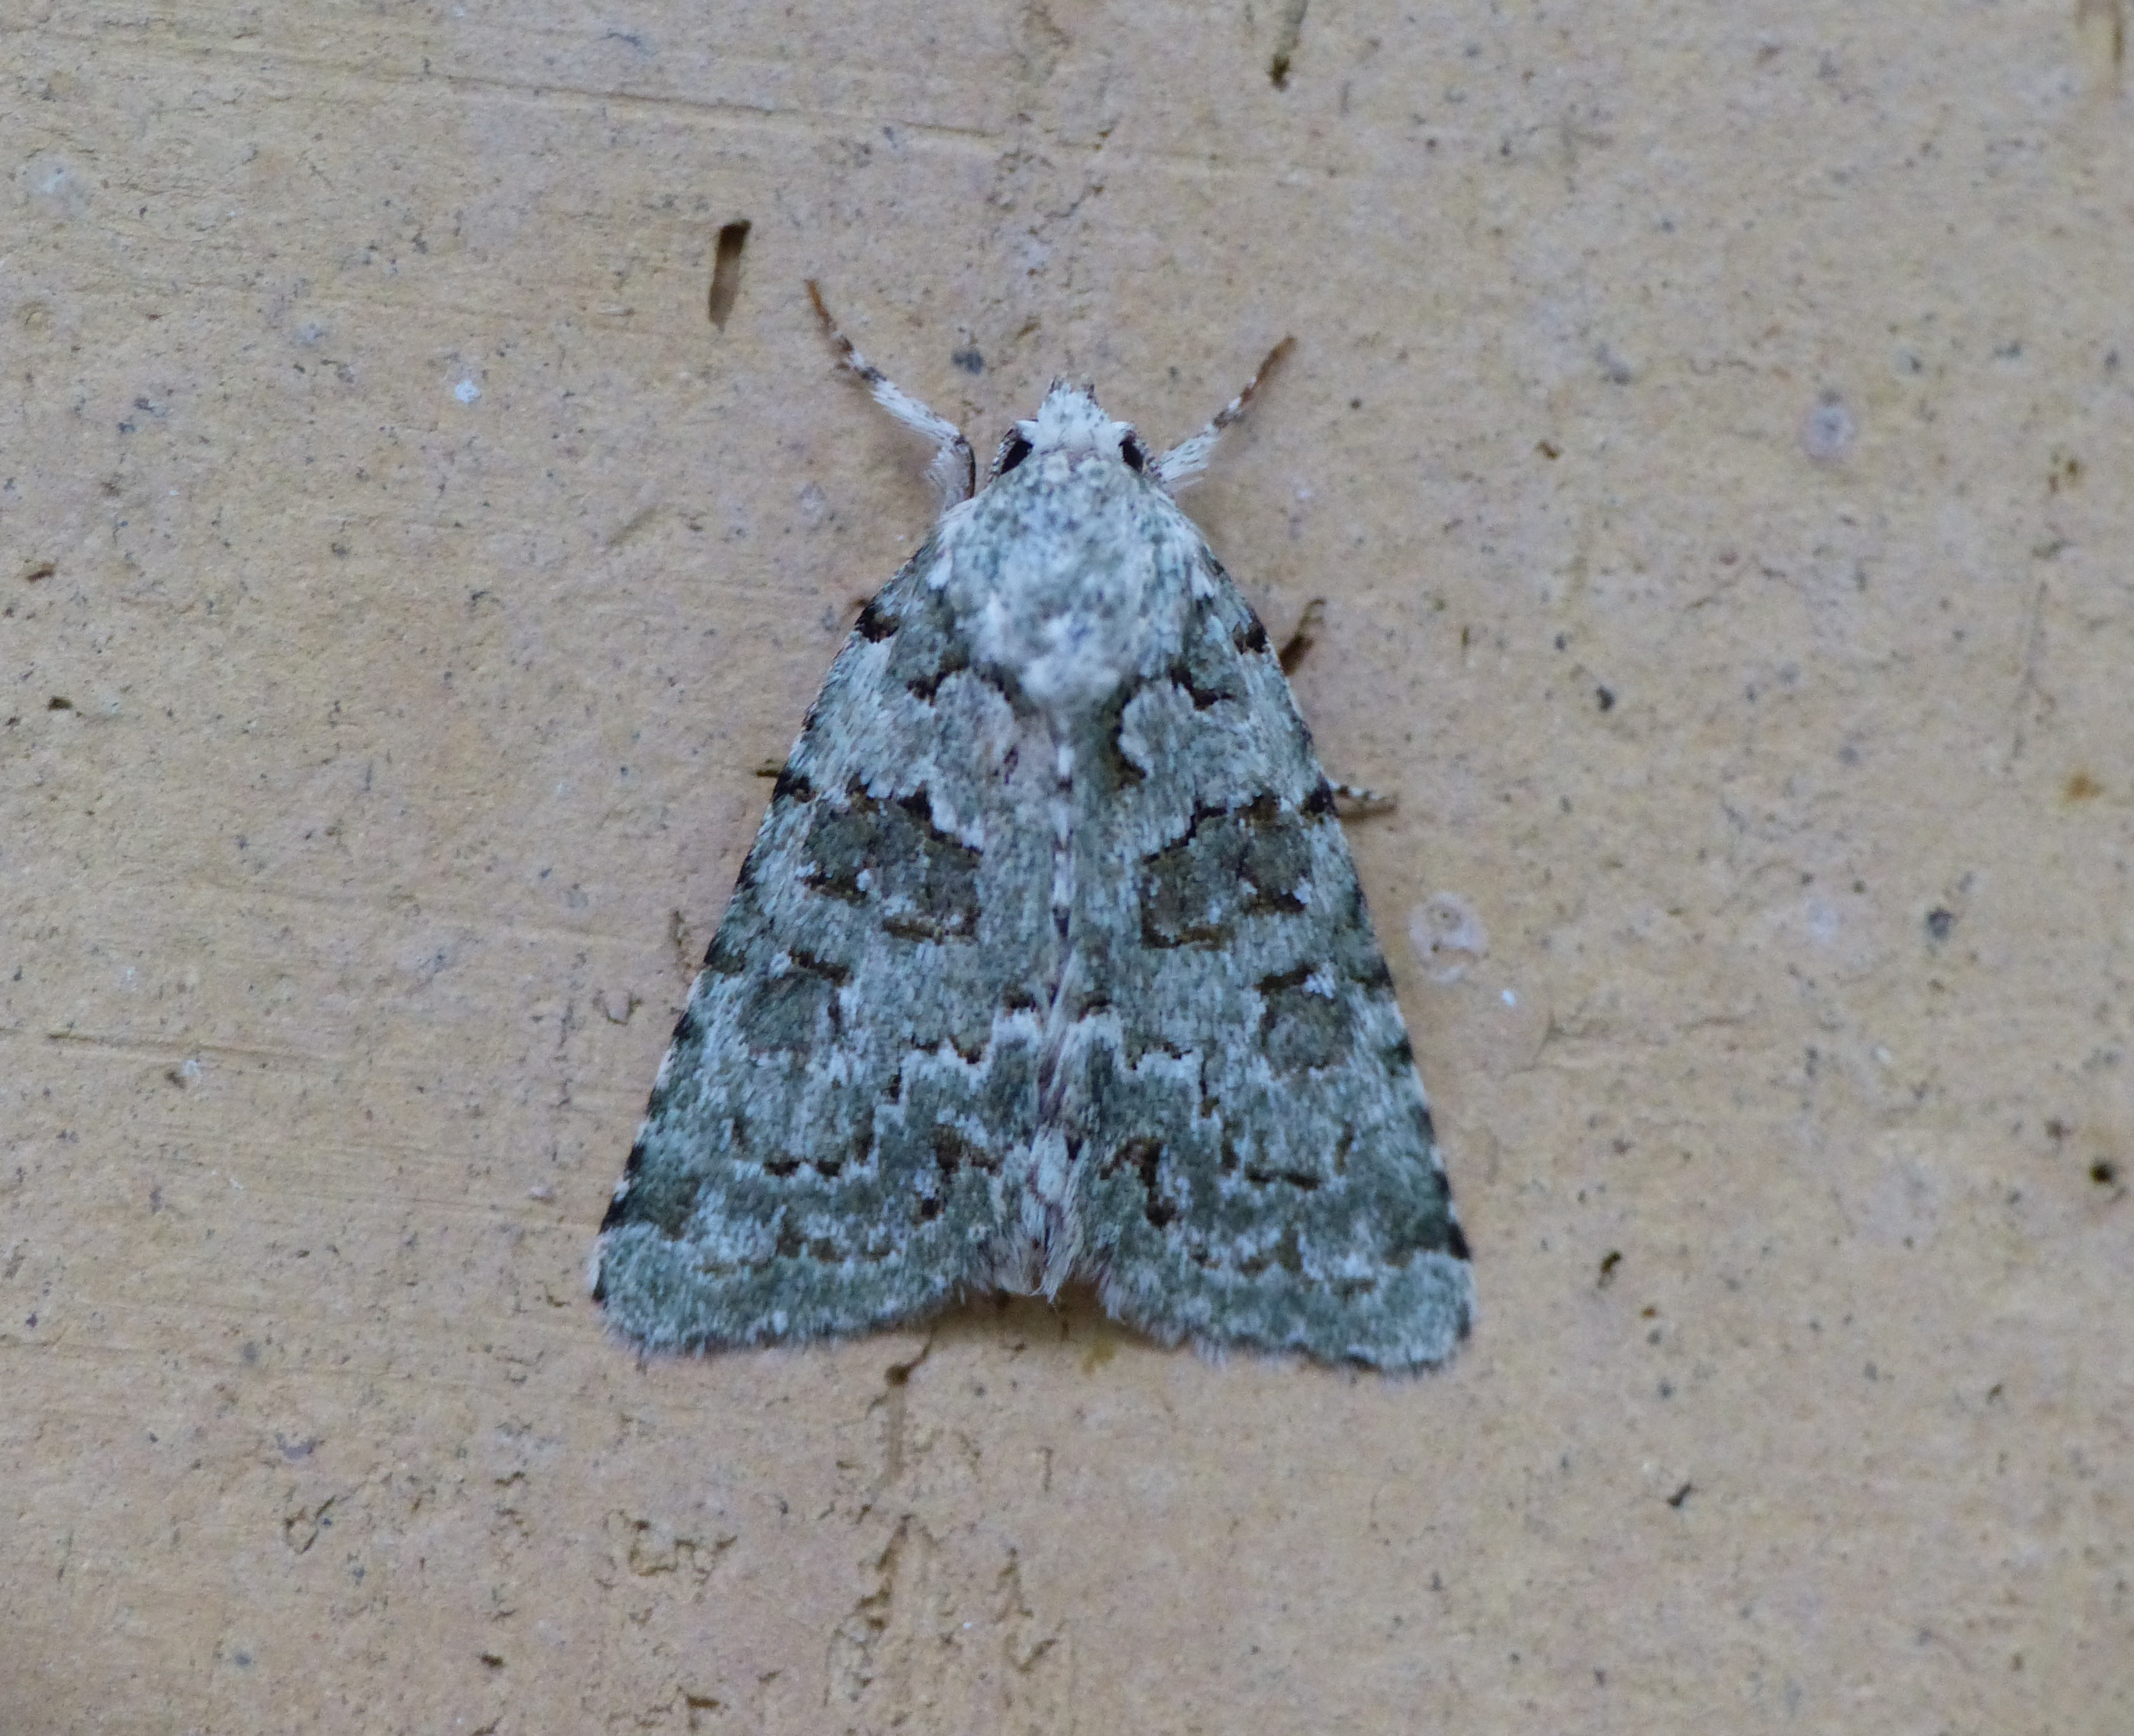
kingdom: Animalia
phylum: Arthropoda
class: Insecta
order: Lepidoptera
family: Noctuidae
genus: Nyctobrya
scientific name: Nyctobrya muralis
